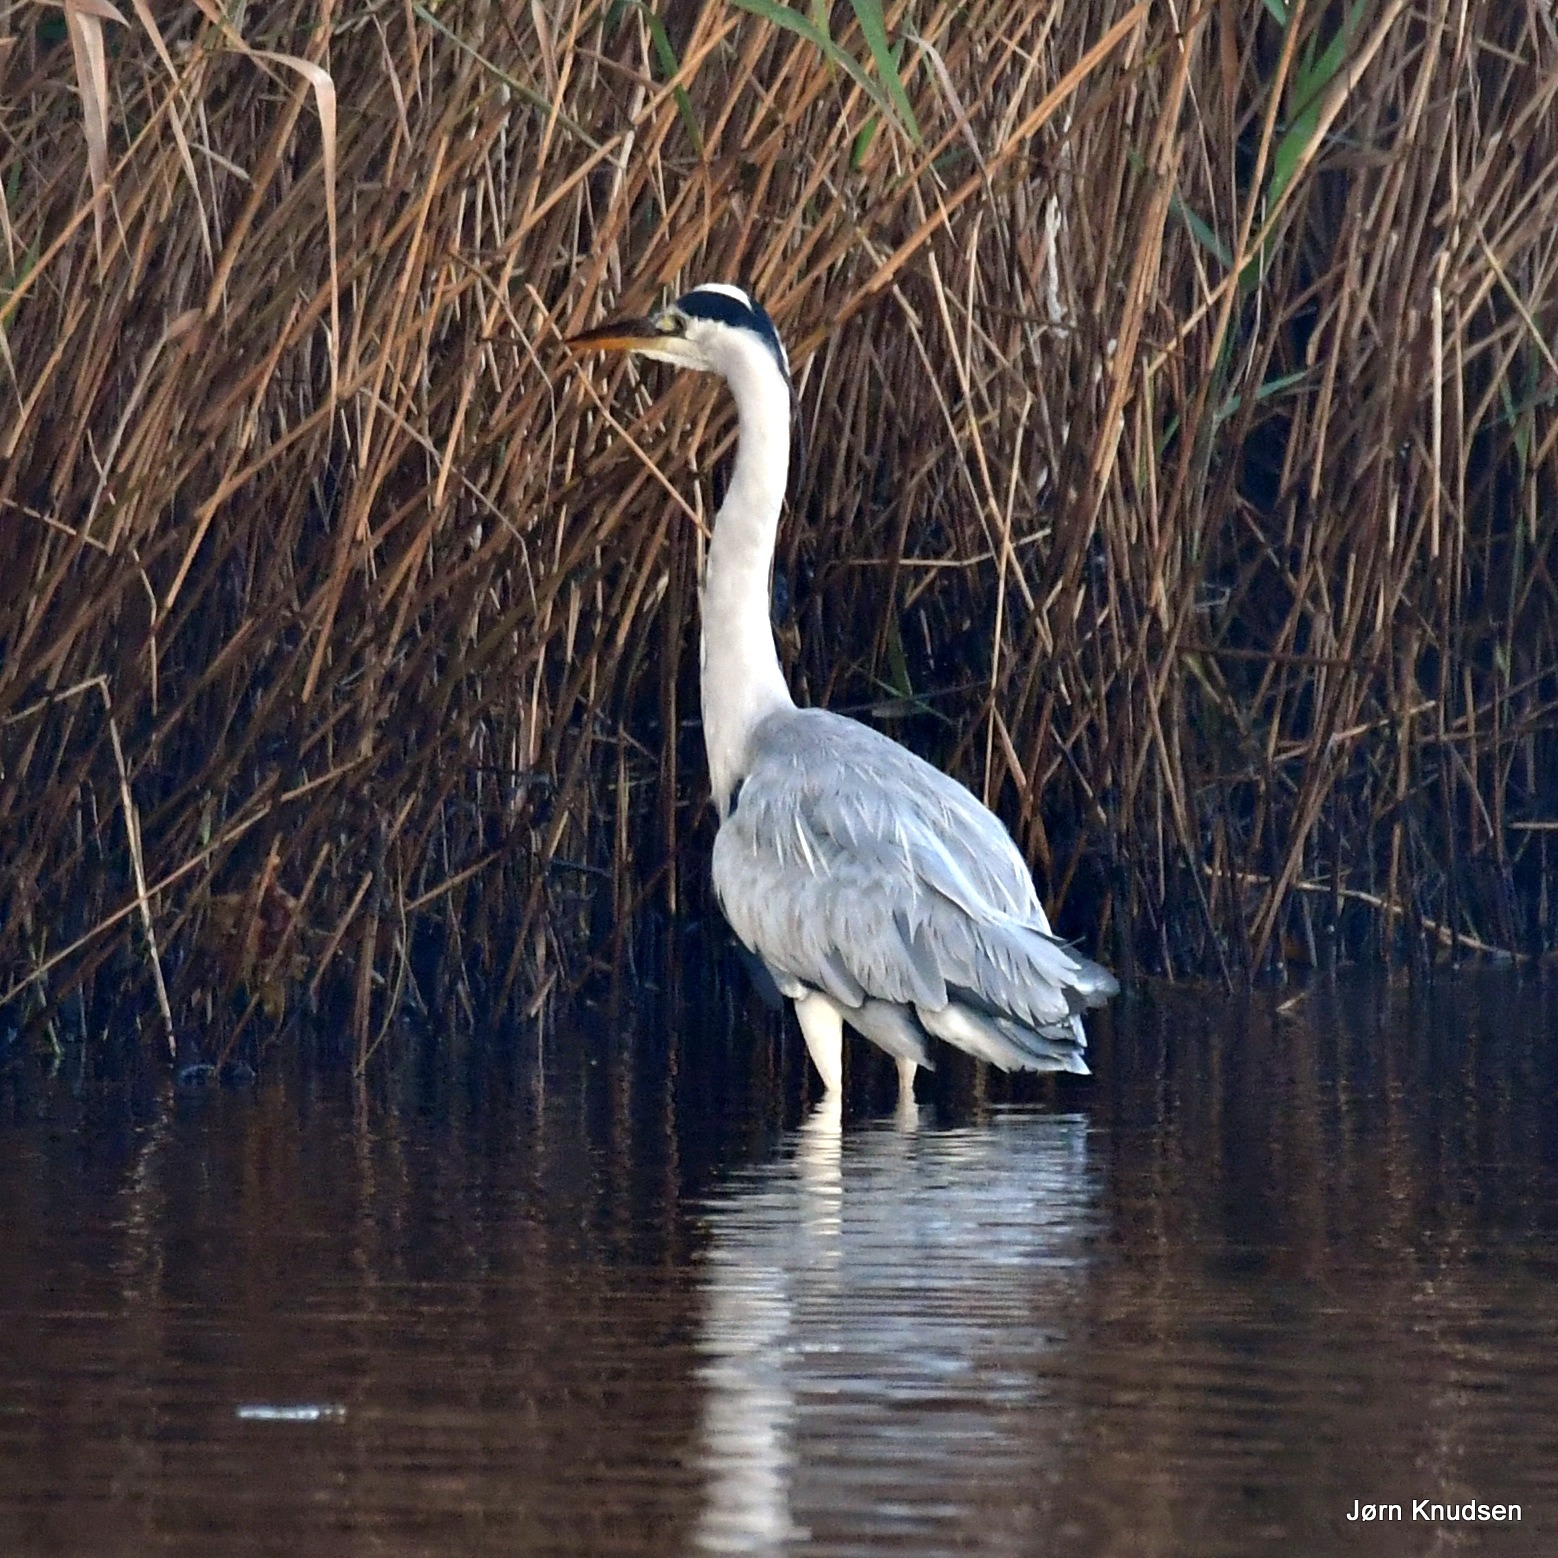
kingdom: Animalia
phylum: Chordata
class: Aves
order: Pelecaniformes
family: Ardeidae
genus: Ardea
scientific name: Ardea cinerea
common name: Fiskehejre
